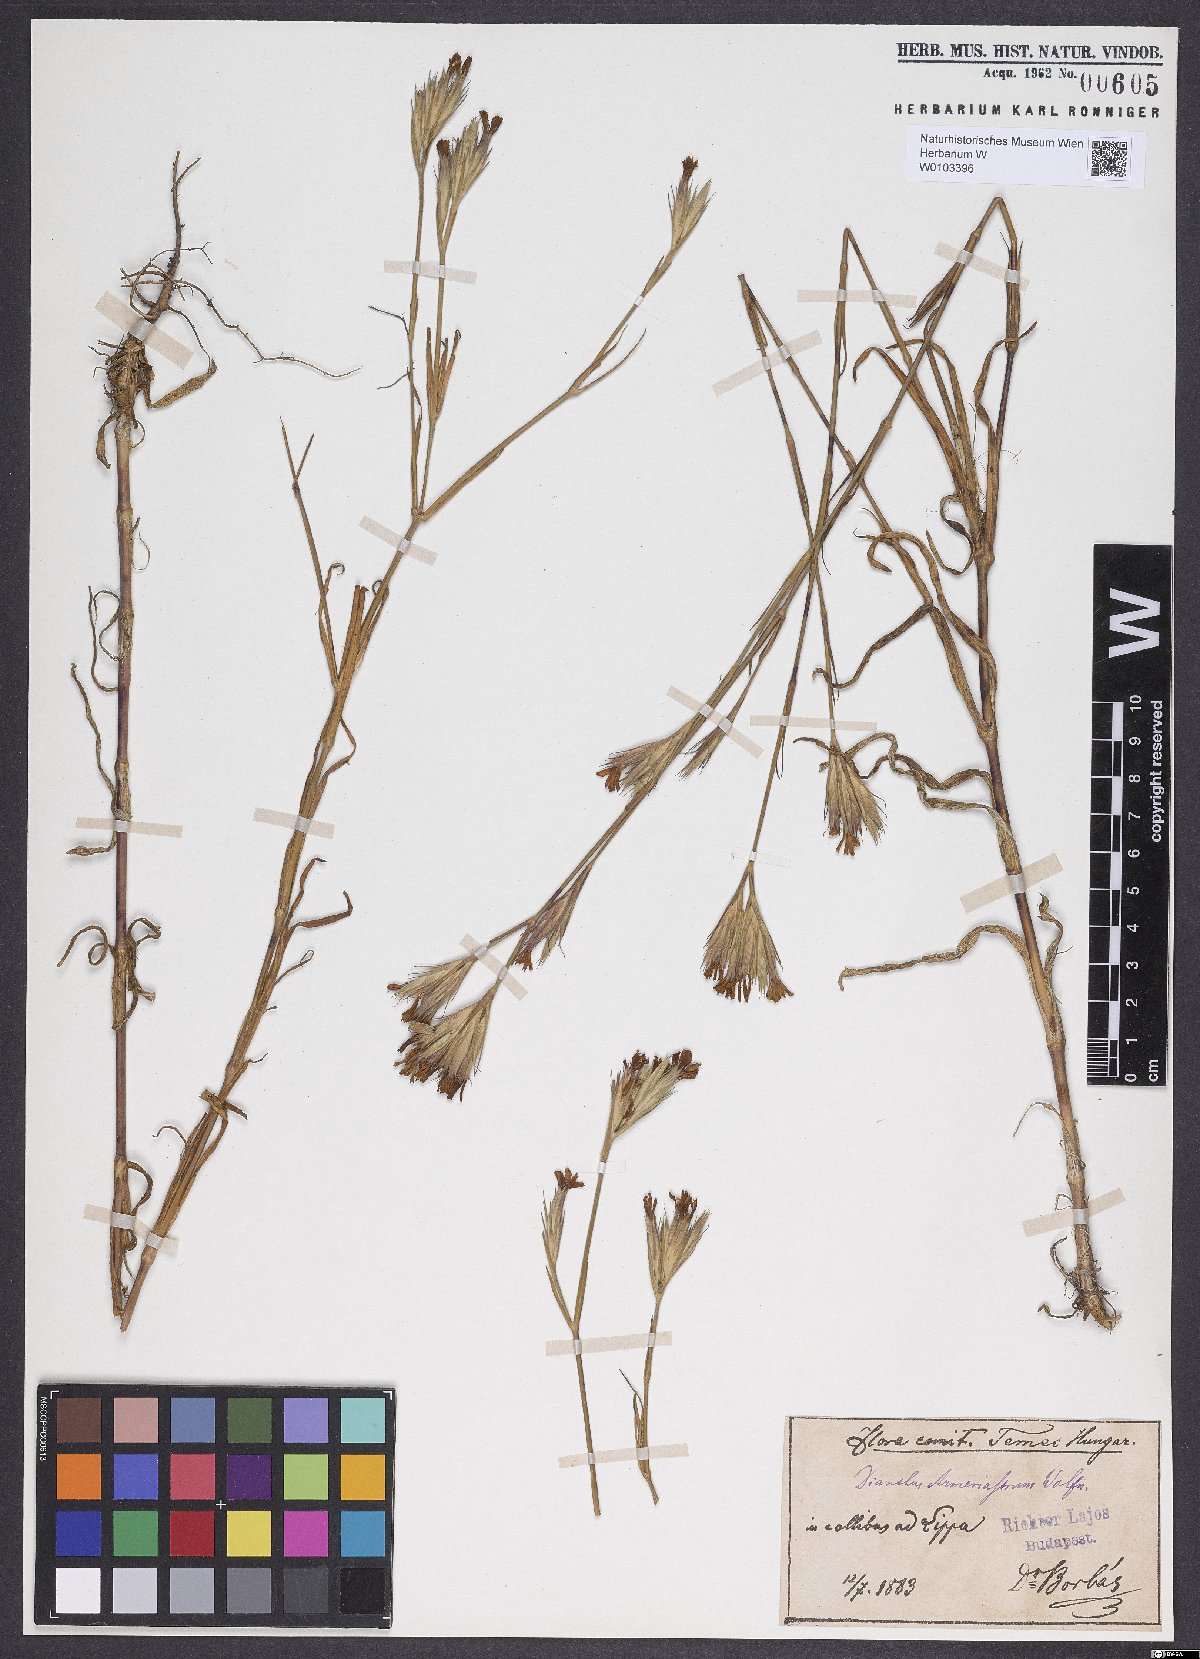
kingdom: Plantae
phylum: Tracheophyta
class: Magnoliopsida
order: Caryophyllales
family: Caryophyllaceae
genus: Dianthus
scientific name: Dianthus corymbosus
